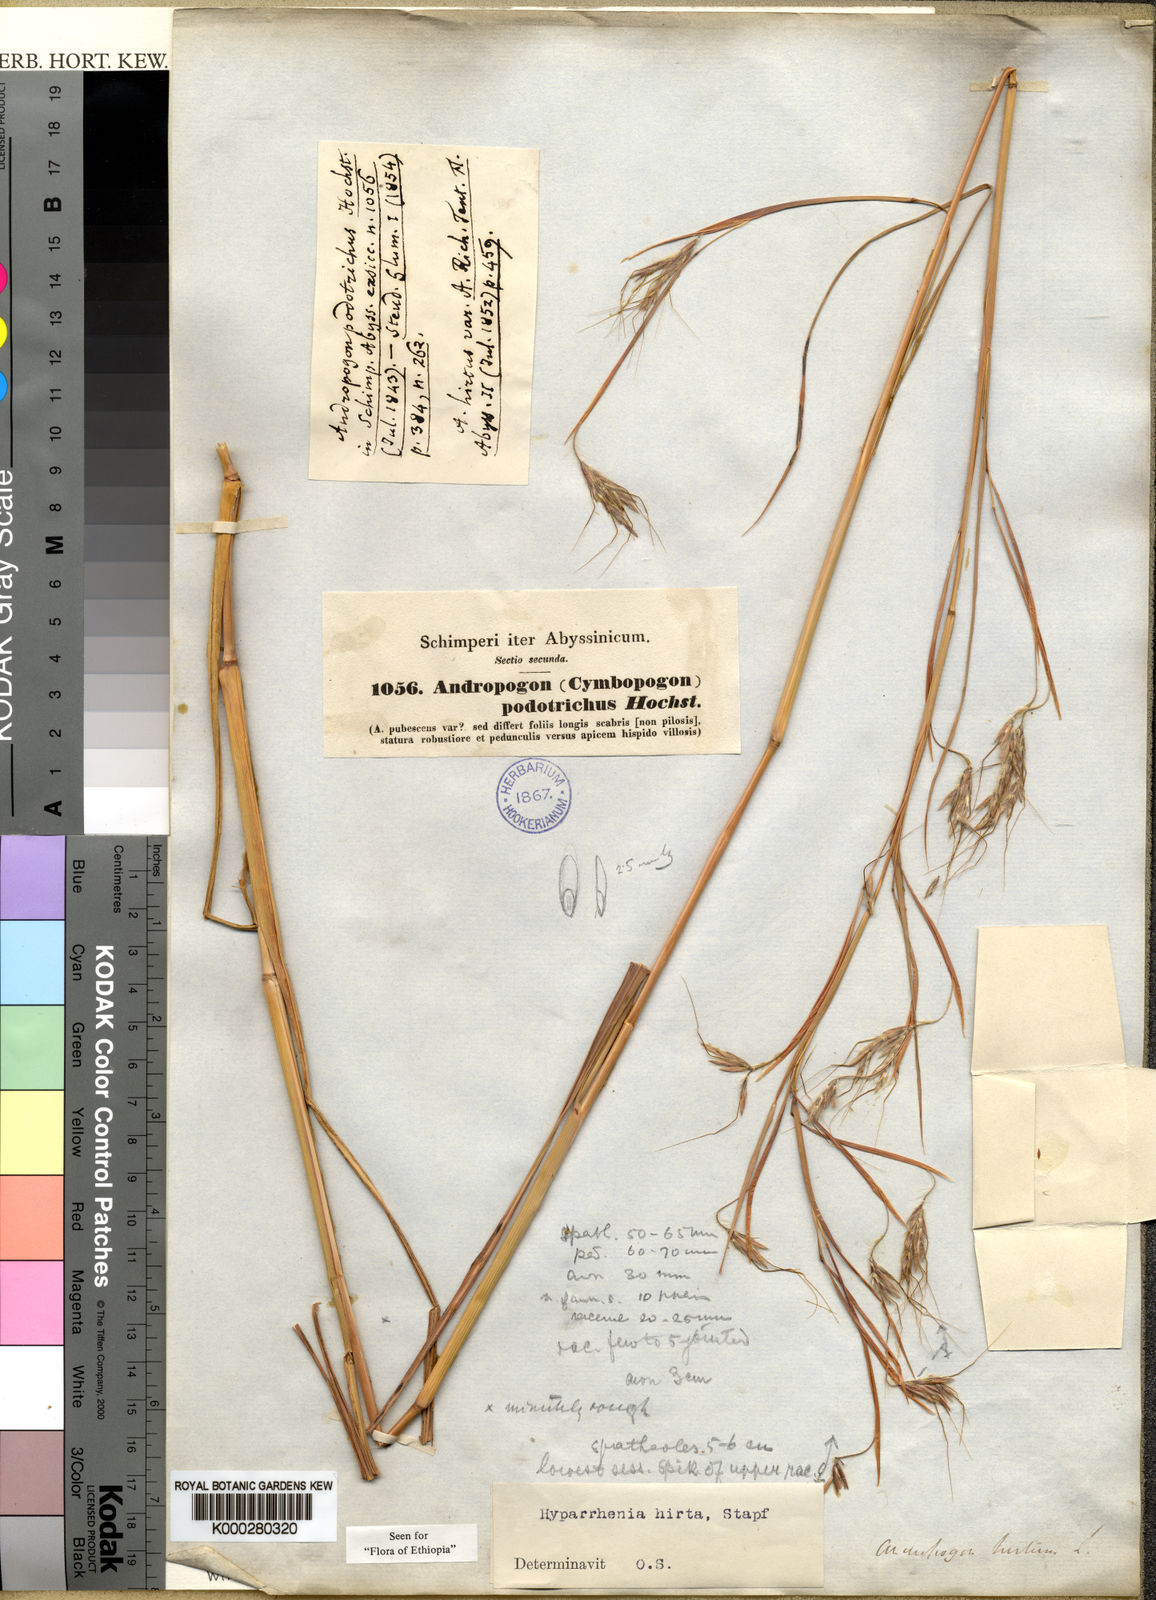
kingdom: Plantae
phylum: Tracheophyta
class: Liliopsida
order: Poales
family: Poaceae
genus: Hyparrhenia
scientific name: Hyparrhenia hirta
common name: Thatching grass
